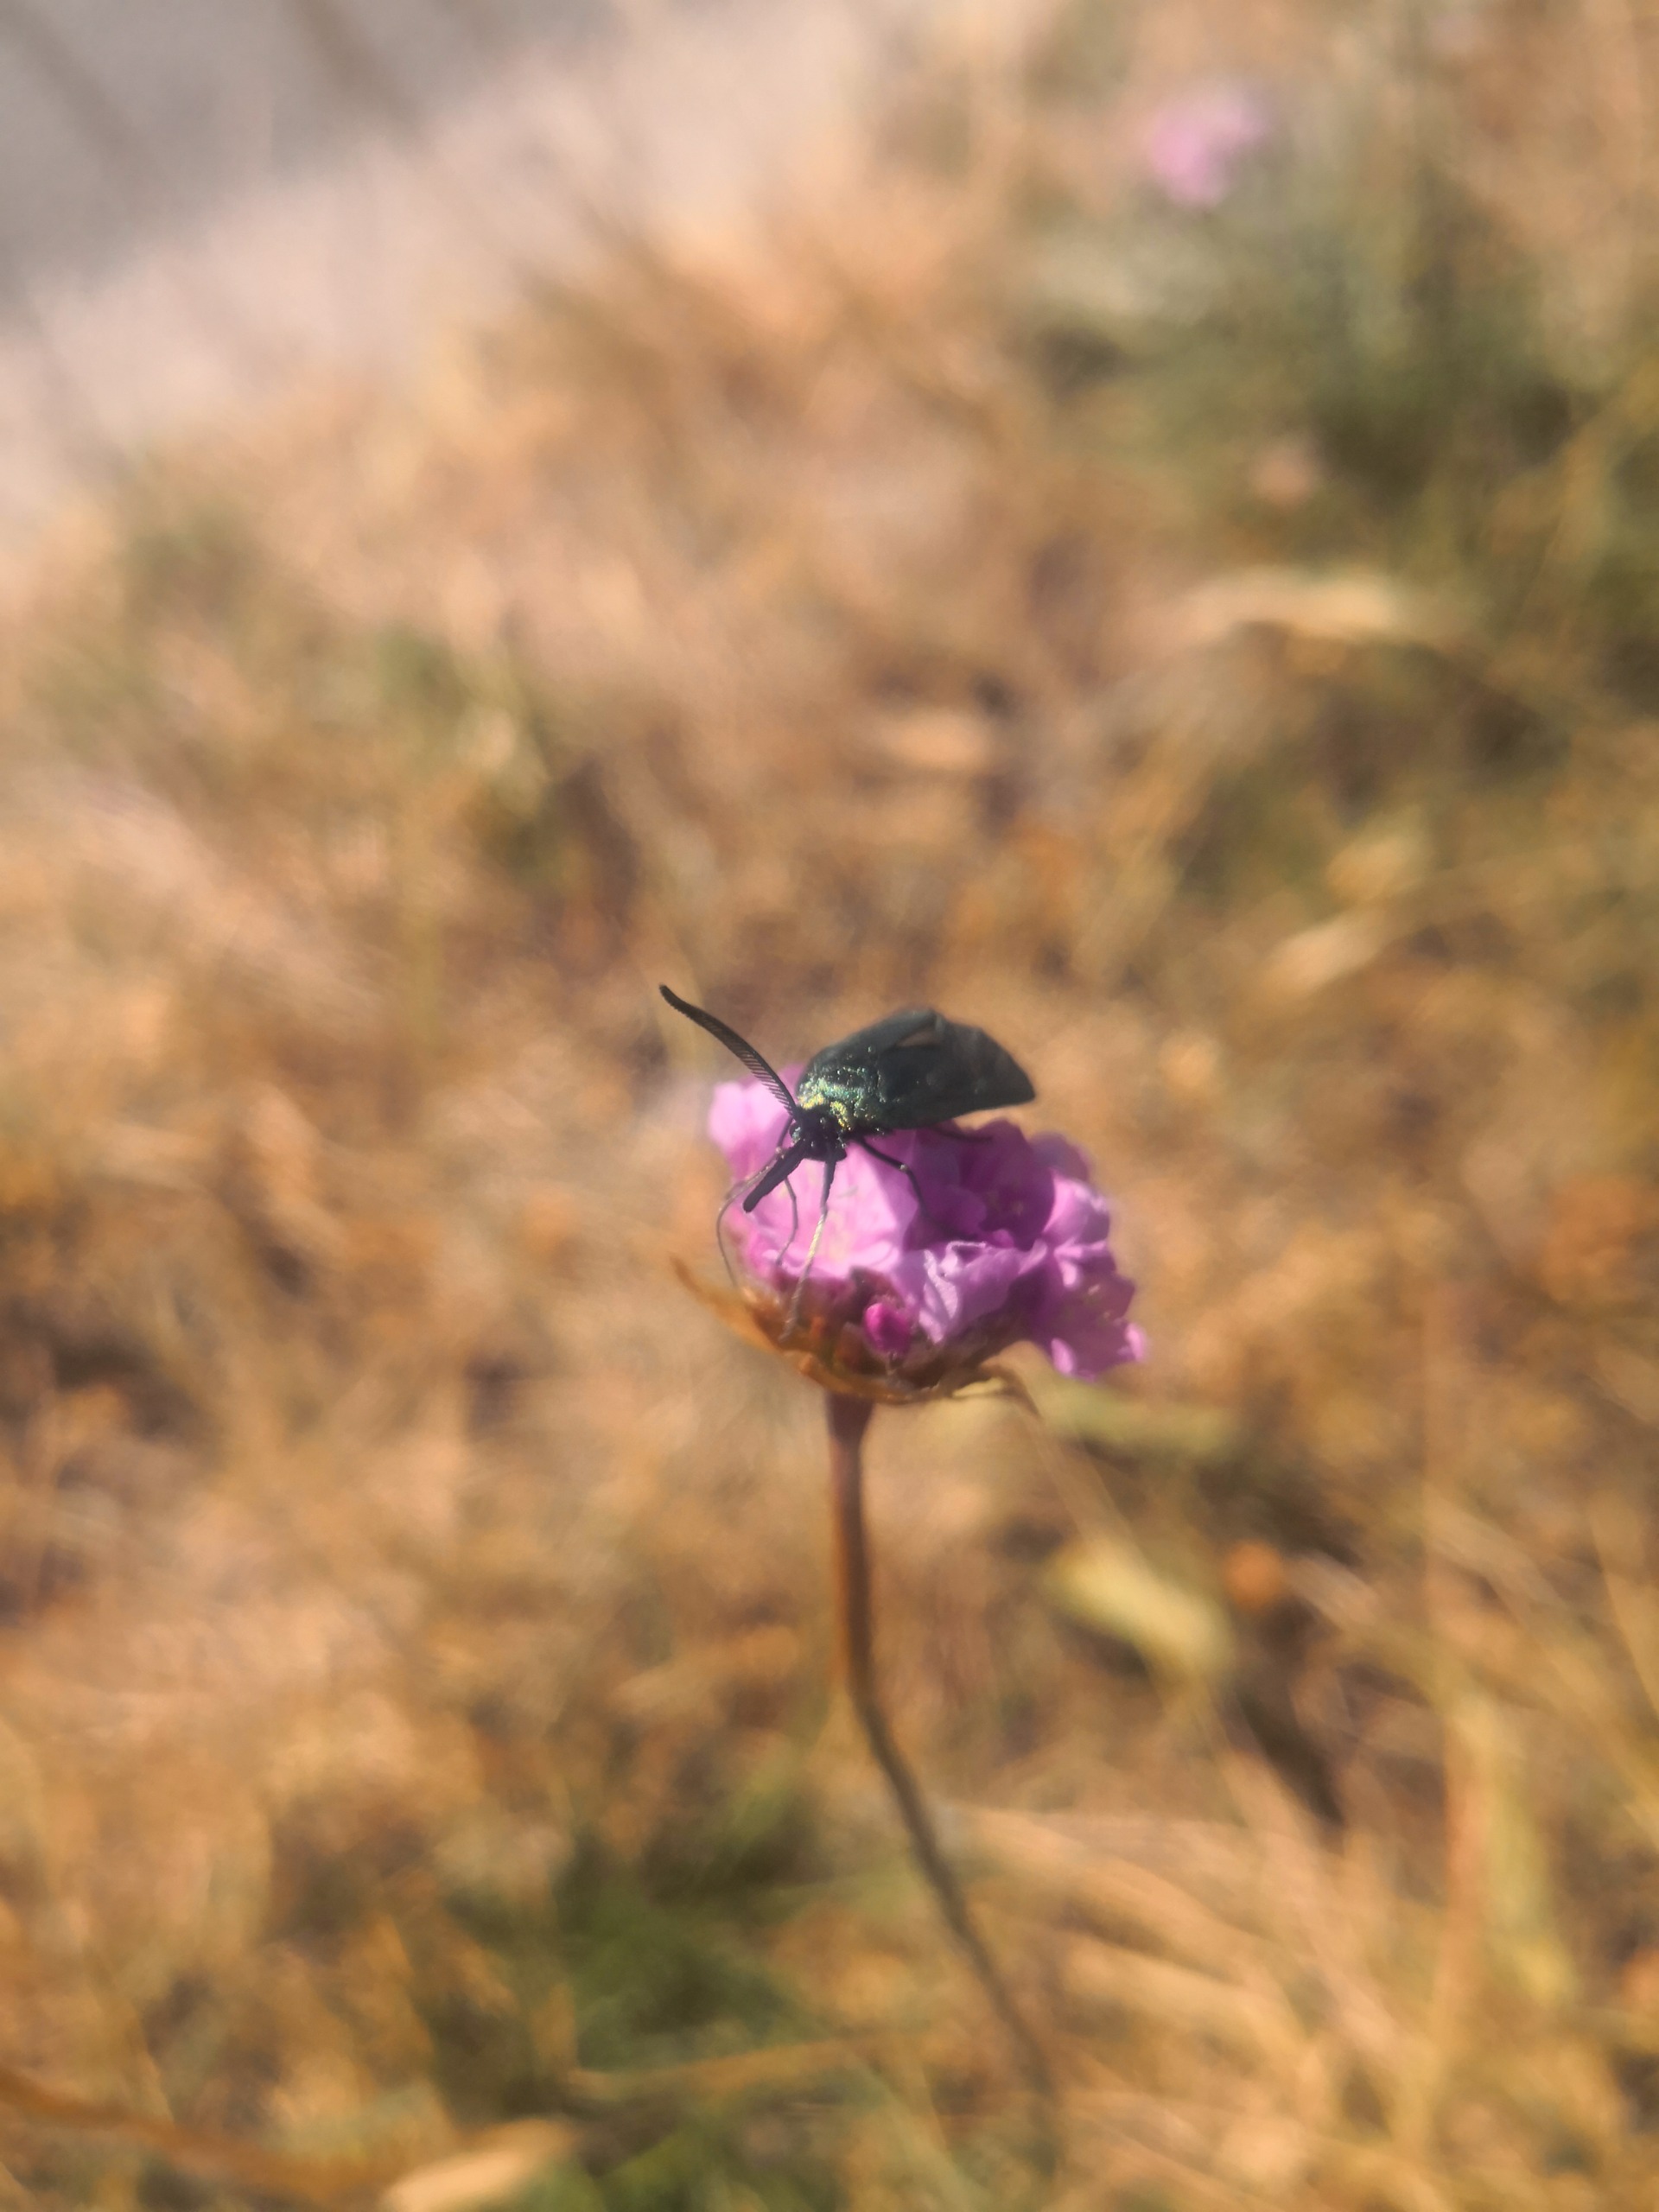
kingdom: Animalia
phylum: Arthropoda
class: Insecta
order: Lepidoptera
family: Zygaenidae
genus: Adscita
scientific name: Adscita statices
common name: Metalvinge
